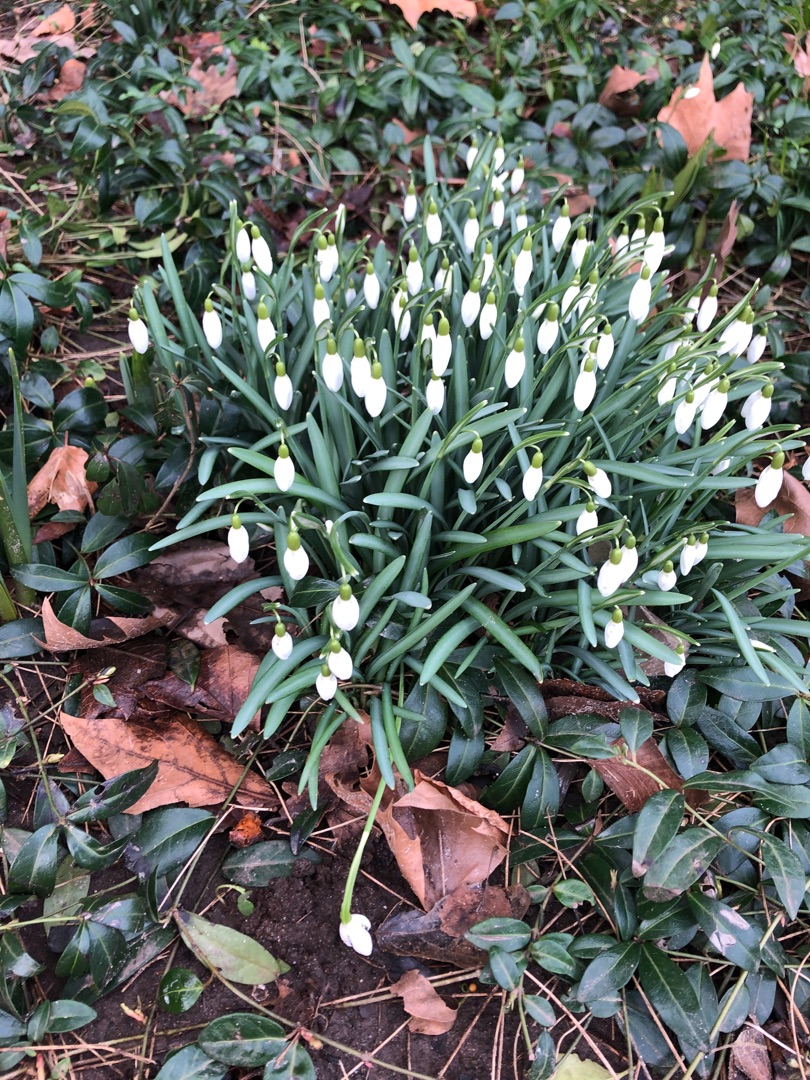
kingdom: Plantae
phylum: Tracheophyta
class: Liliopsida
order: Asparagales
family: Amaryllidaceae
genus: Galanthus
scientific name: Galanthus nivalis
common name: Vintergæk
